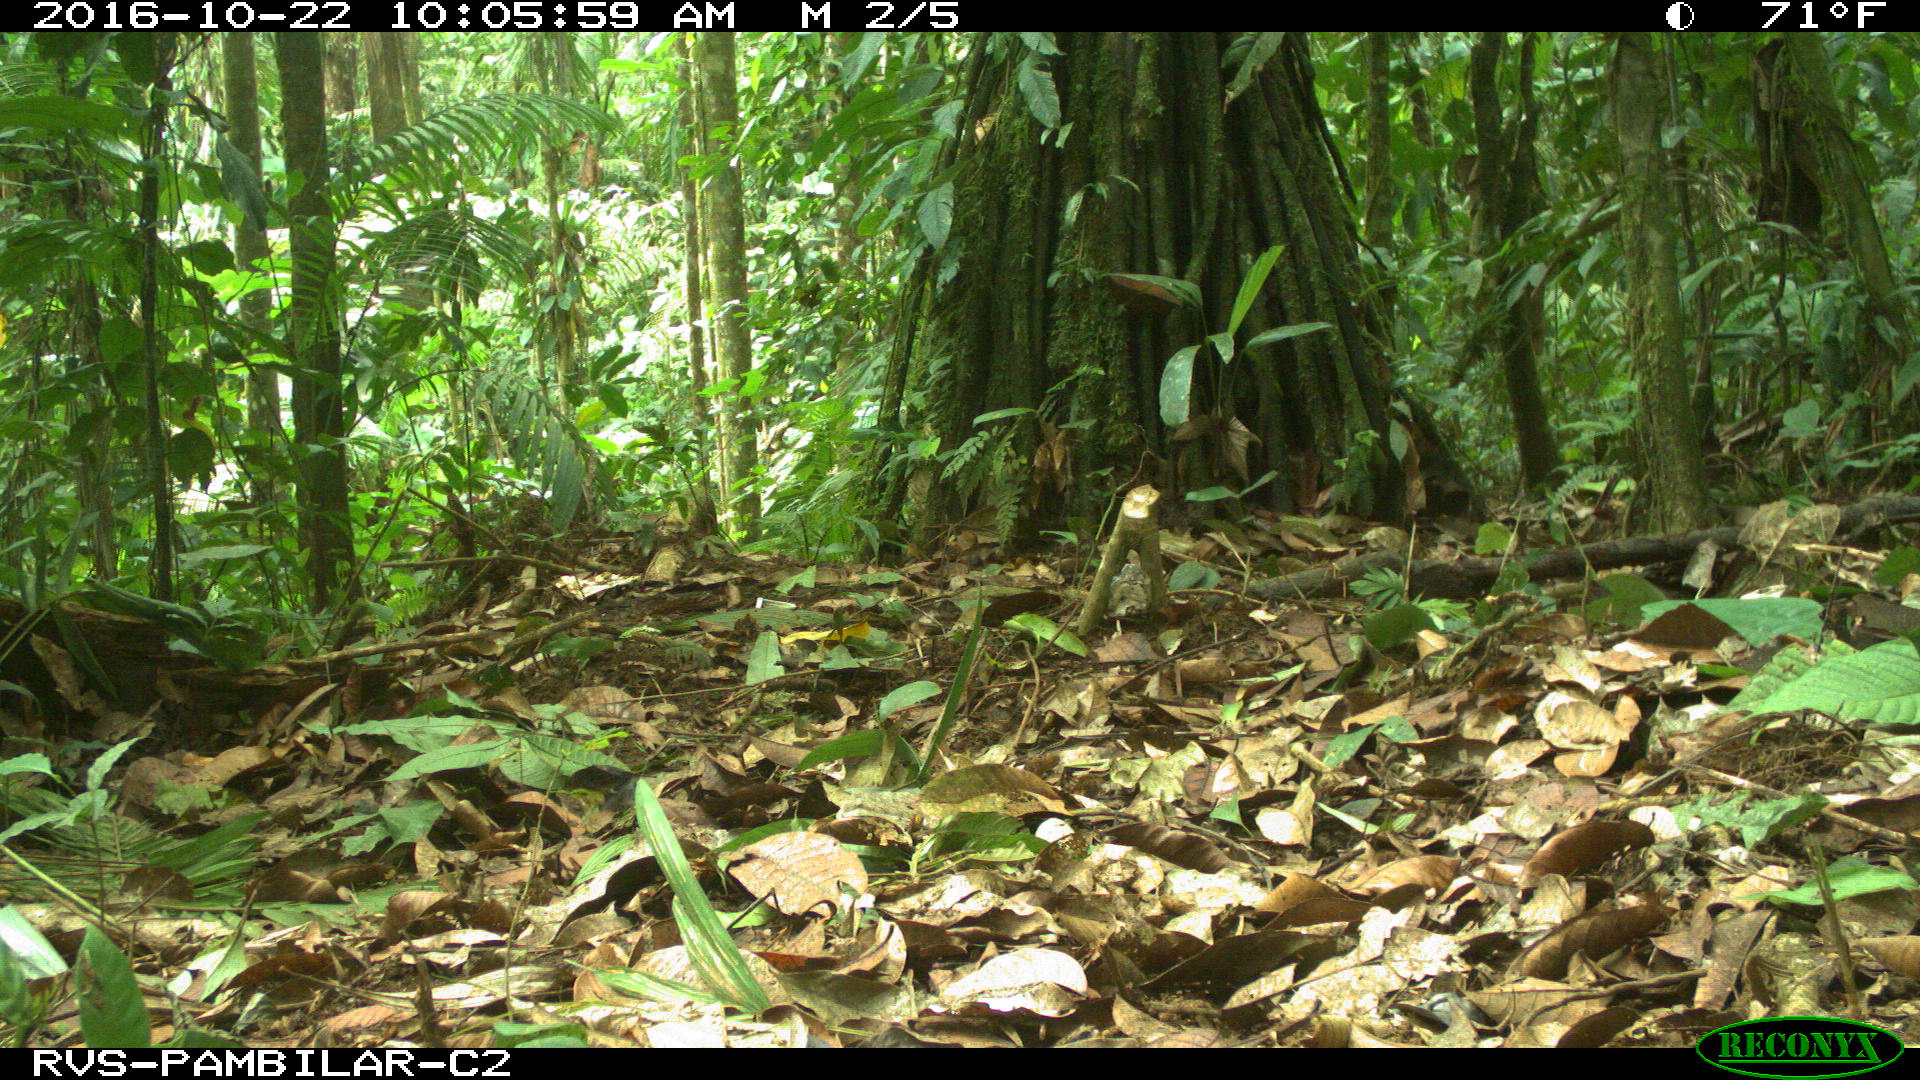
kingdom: Animalia
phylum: Chordata
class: Mammalia
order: Artiodactyla
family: Tayassuidae
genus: Tayassu
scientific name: Tayassu pecari
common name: White-lipped peccary
